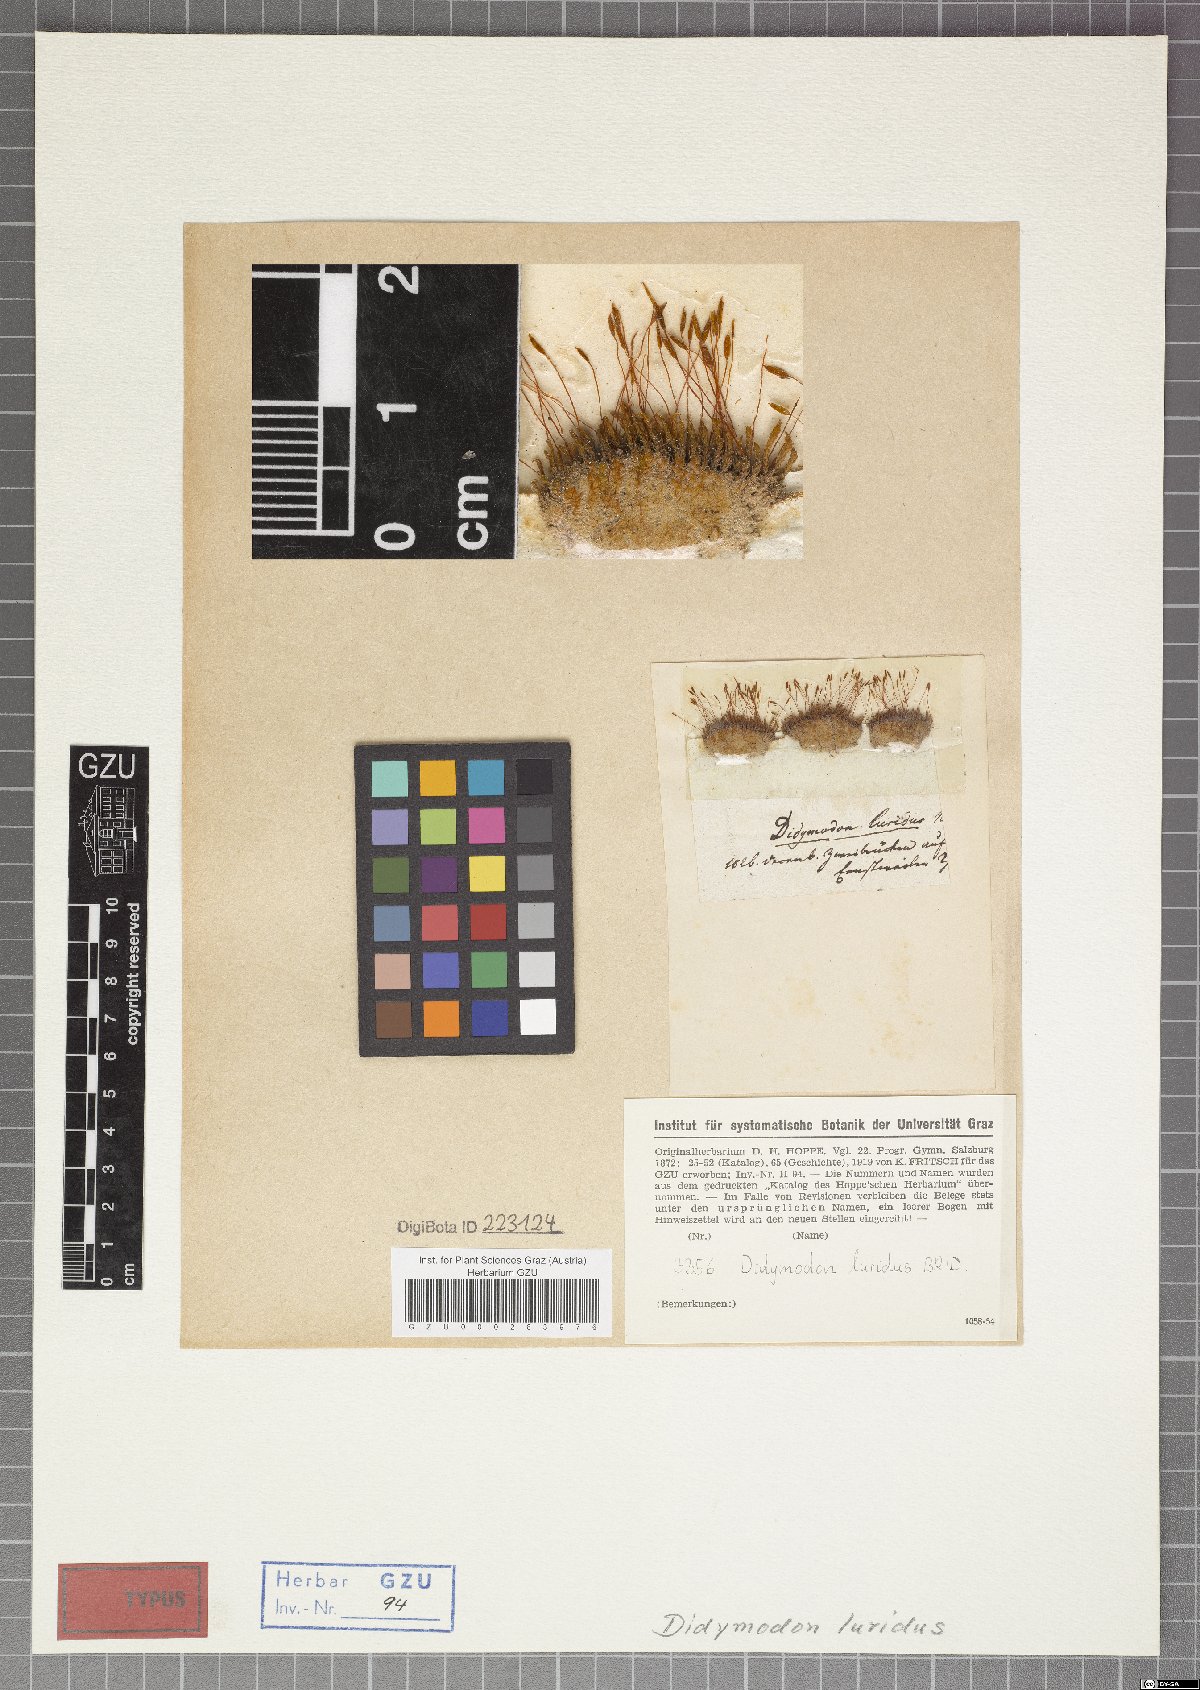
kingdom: Plantae
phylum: Bryophyta
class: Bryopsida
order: Pottiales
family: Pottiaceae
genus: Didymodon
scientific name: Didymodon luridus
